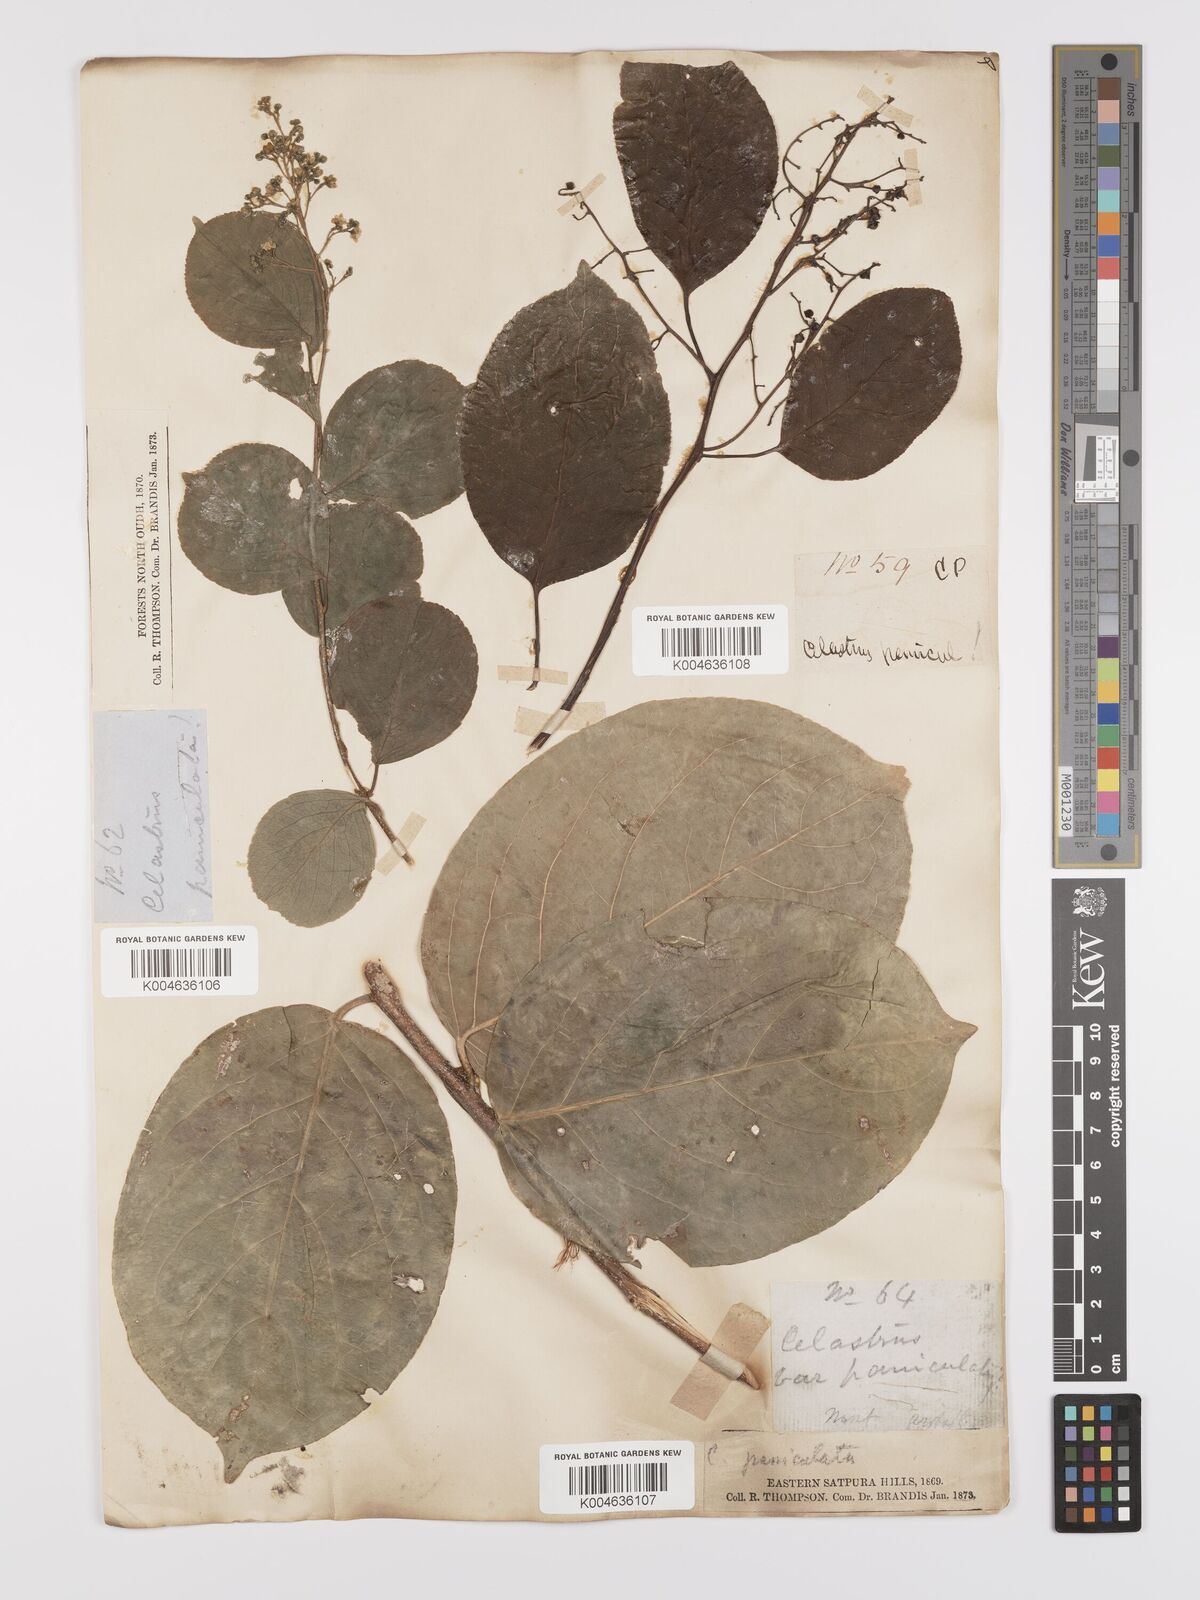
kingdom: Plantae
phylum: Tracheophyta
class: Magnoliopsida
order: Celastrales
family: Celastraceae
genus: Celastrus
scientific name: Celastrus paniculatus
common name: Oriental bittersweet; staff vine
